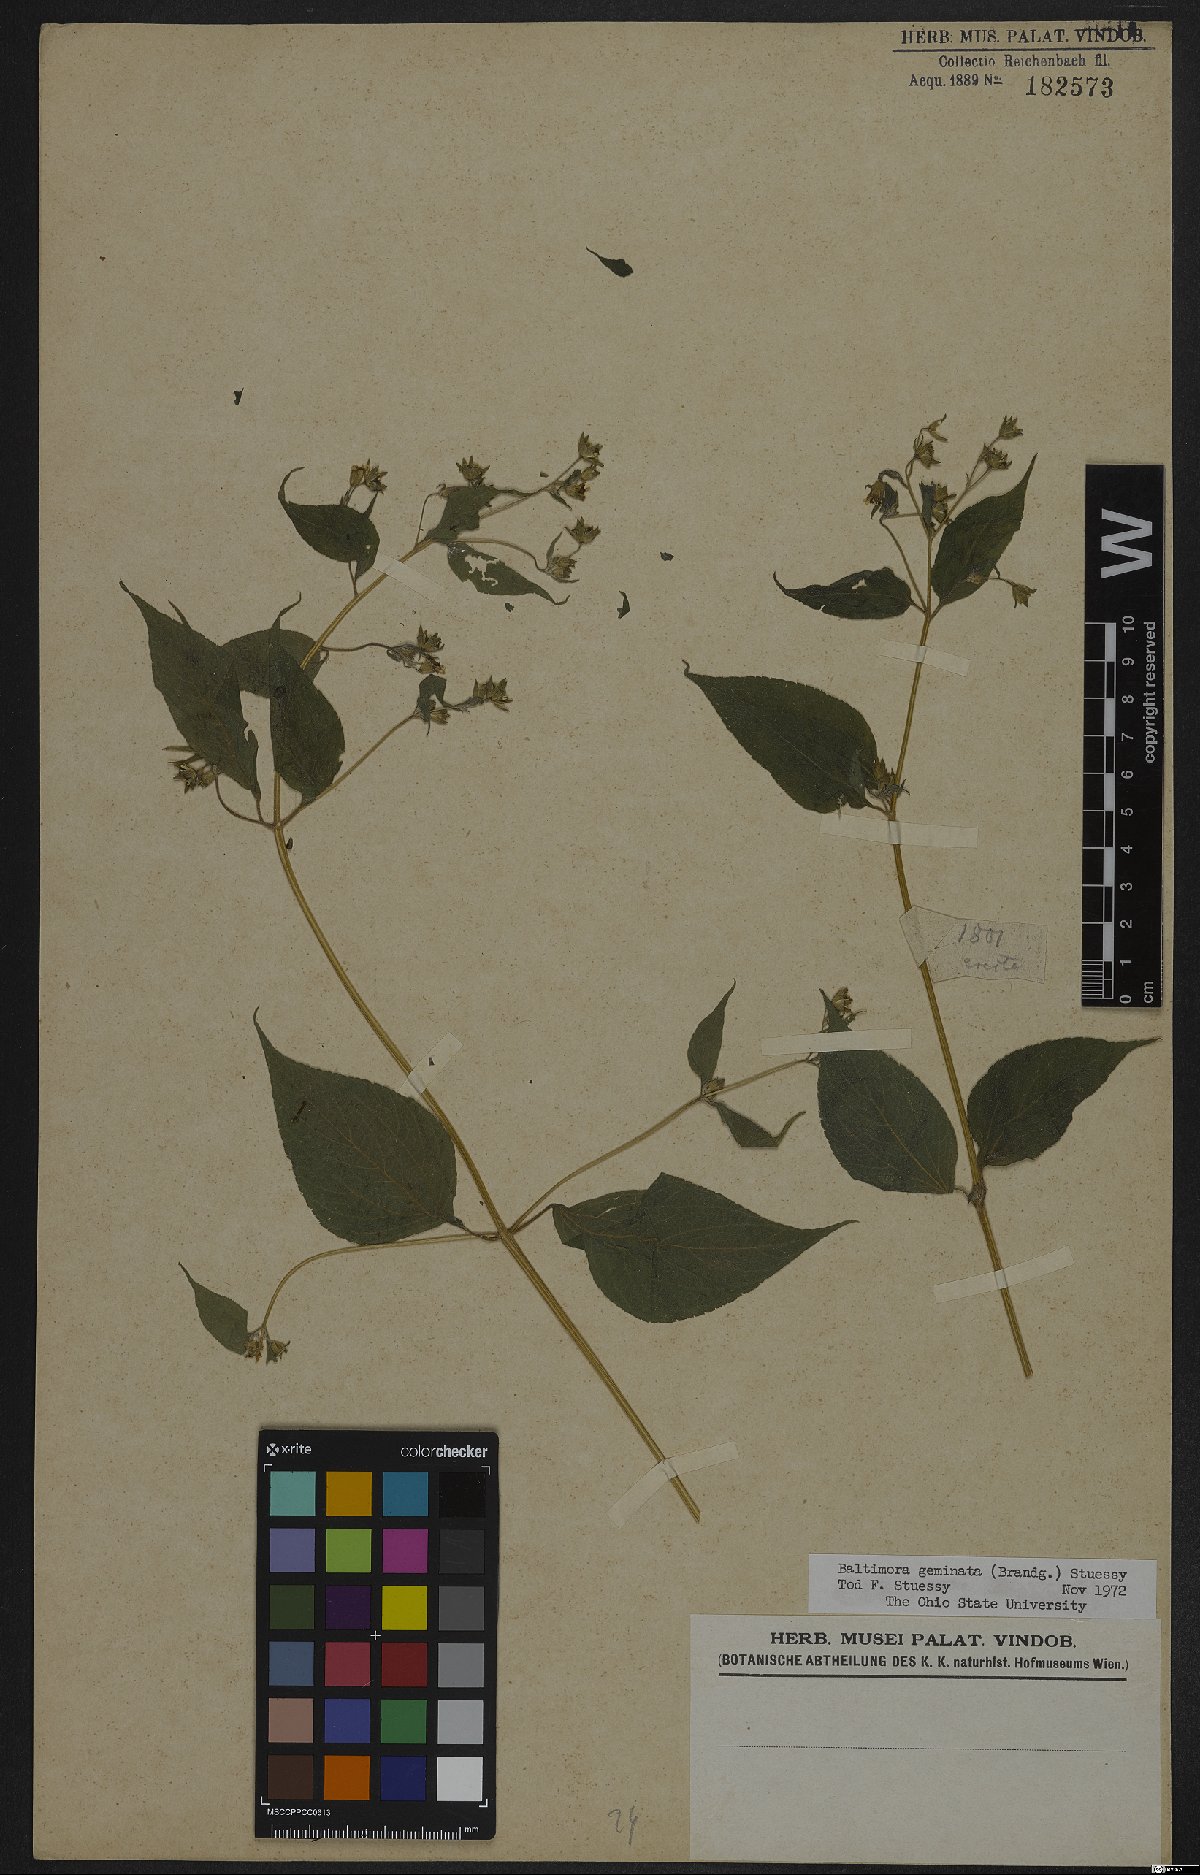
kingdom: Plantae
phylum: Tracheophyta
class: Magnoliopsida
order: Asterales
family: Asteraceae
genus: Baltimora
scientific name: Baltimora geminata
